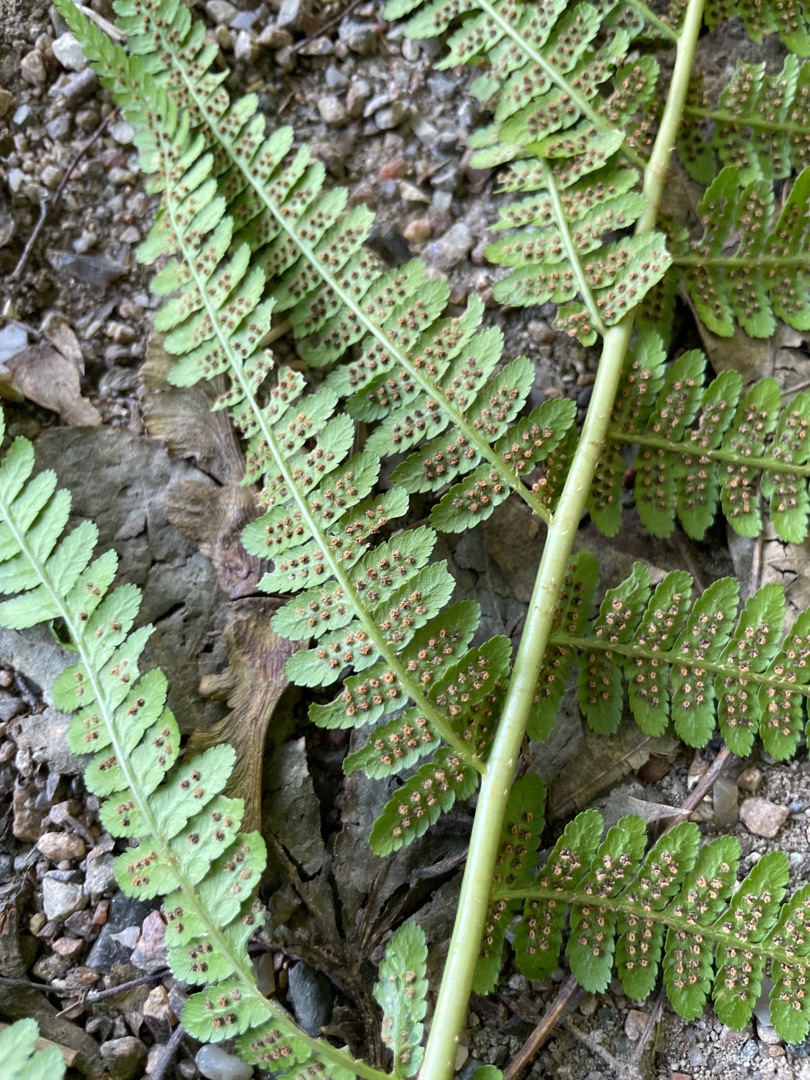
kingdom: Plantae
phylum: Tracheophyta
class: Polypodiopsida
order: Polypodiales
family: Dryopteridaceae
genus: Dryopteris
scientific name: Dryopteris filix-mas
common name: Almindelig mangeløv
